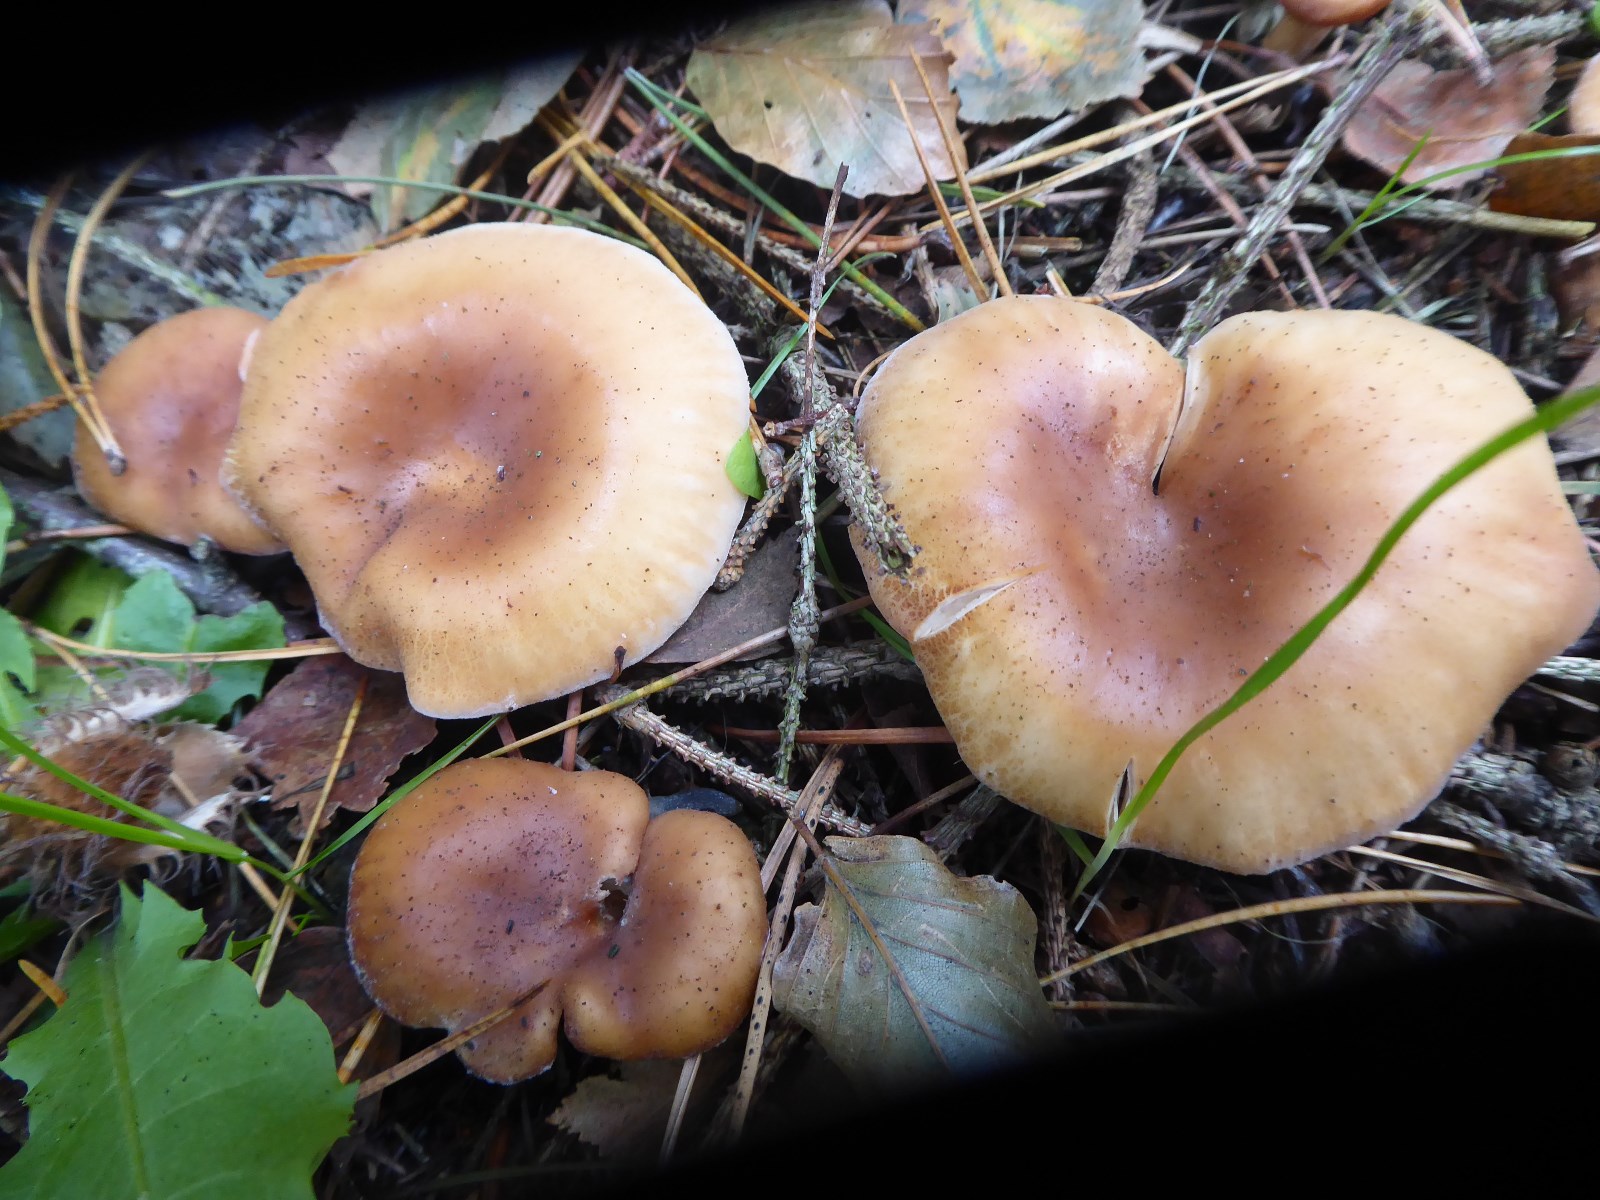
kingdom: Fungi
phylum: Basidiomycota
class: Agaricomycetes
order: Agaricales
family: Tricholomataceae
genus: Paralepista
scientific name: Paralepista flaccida
